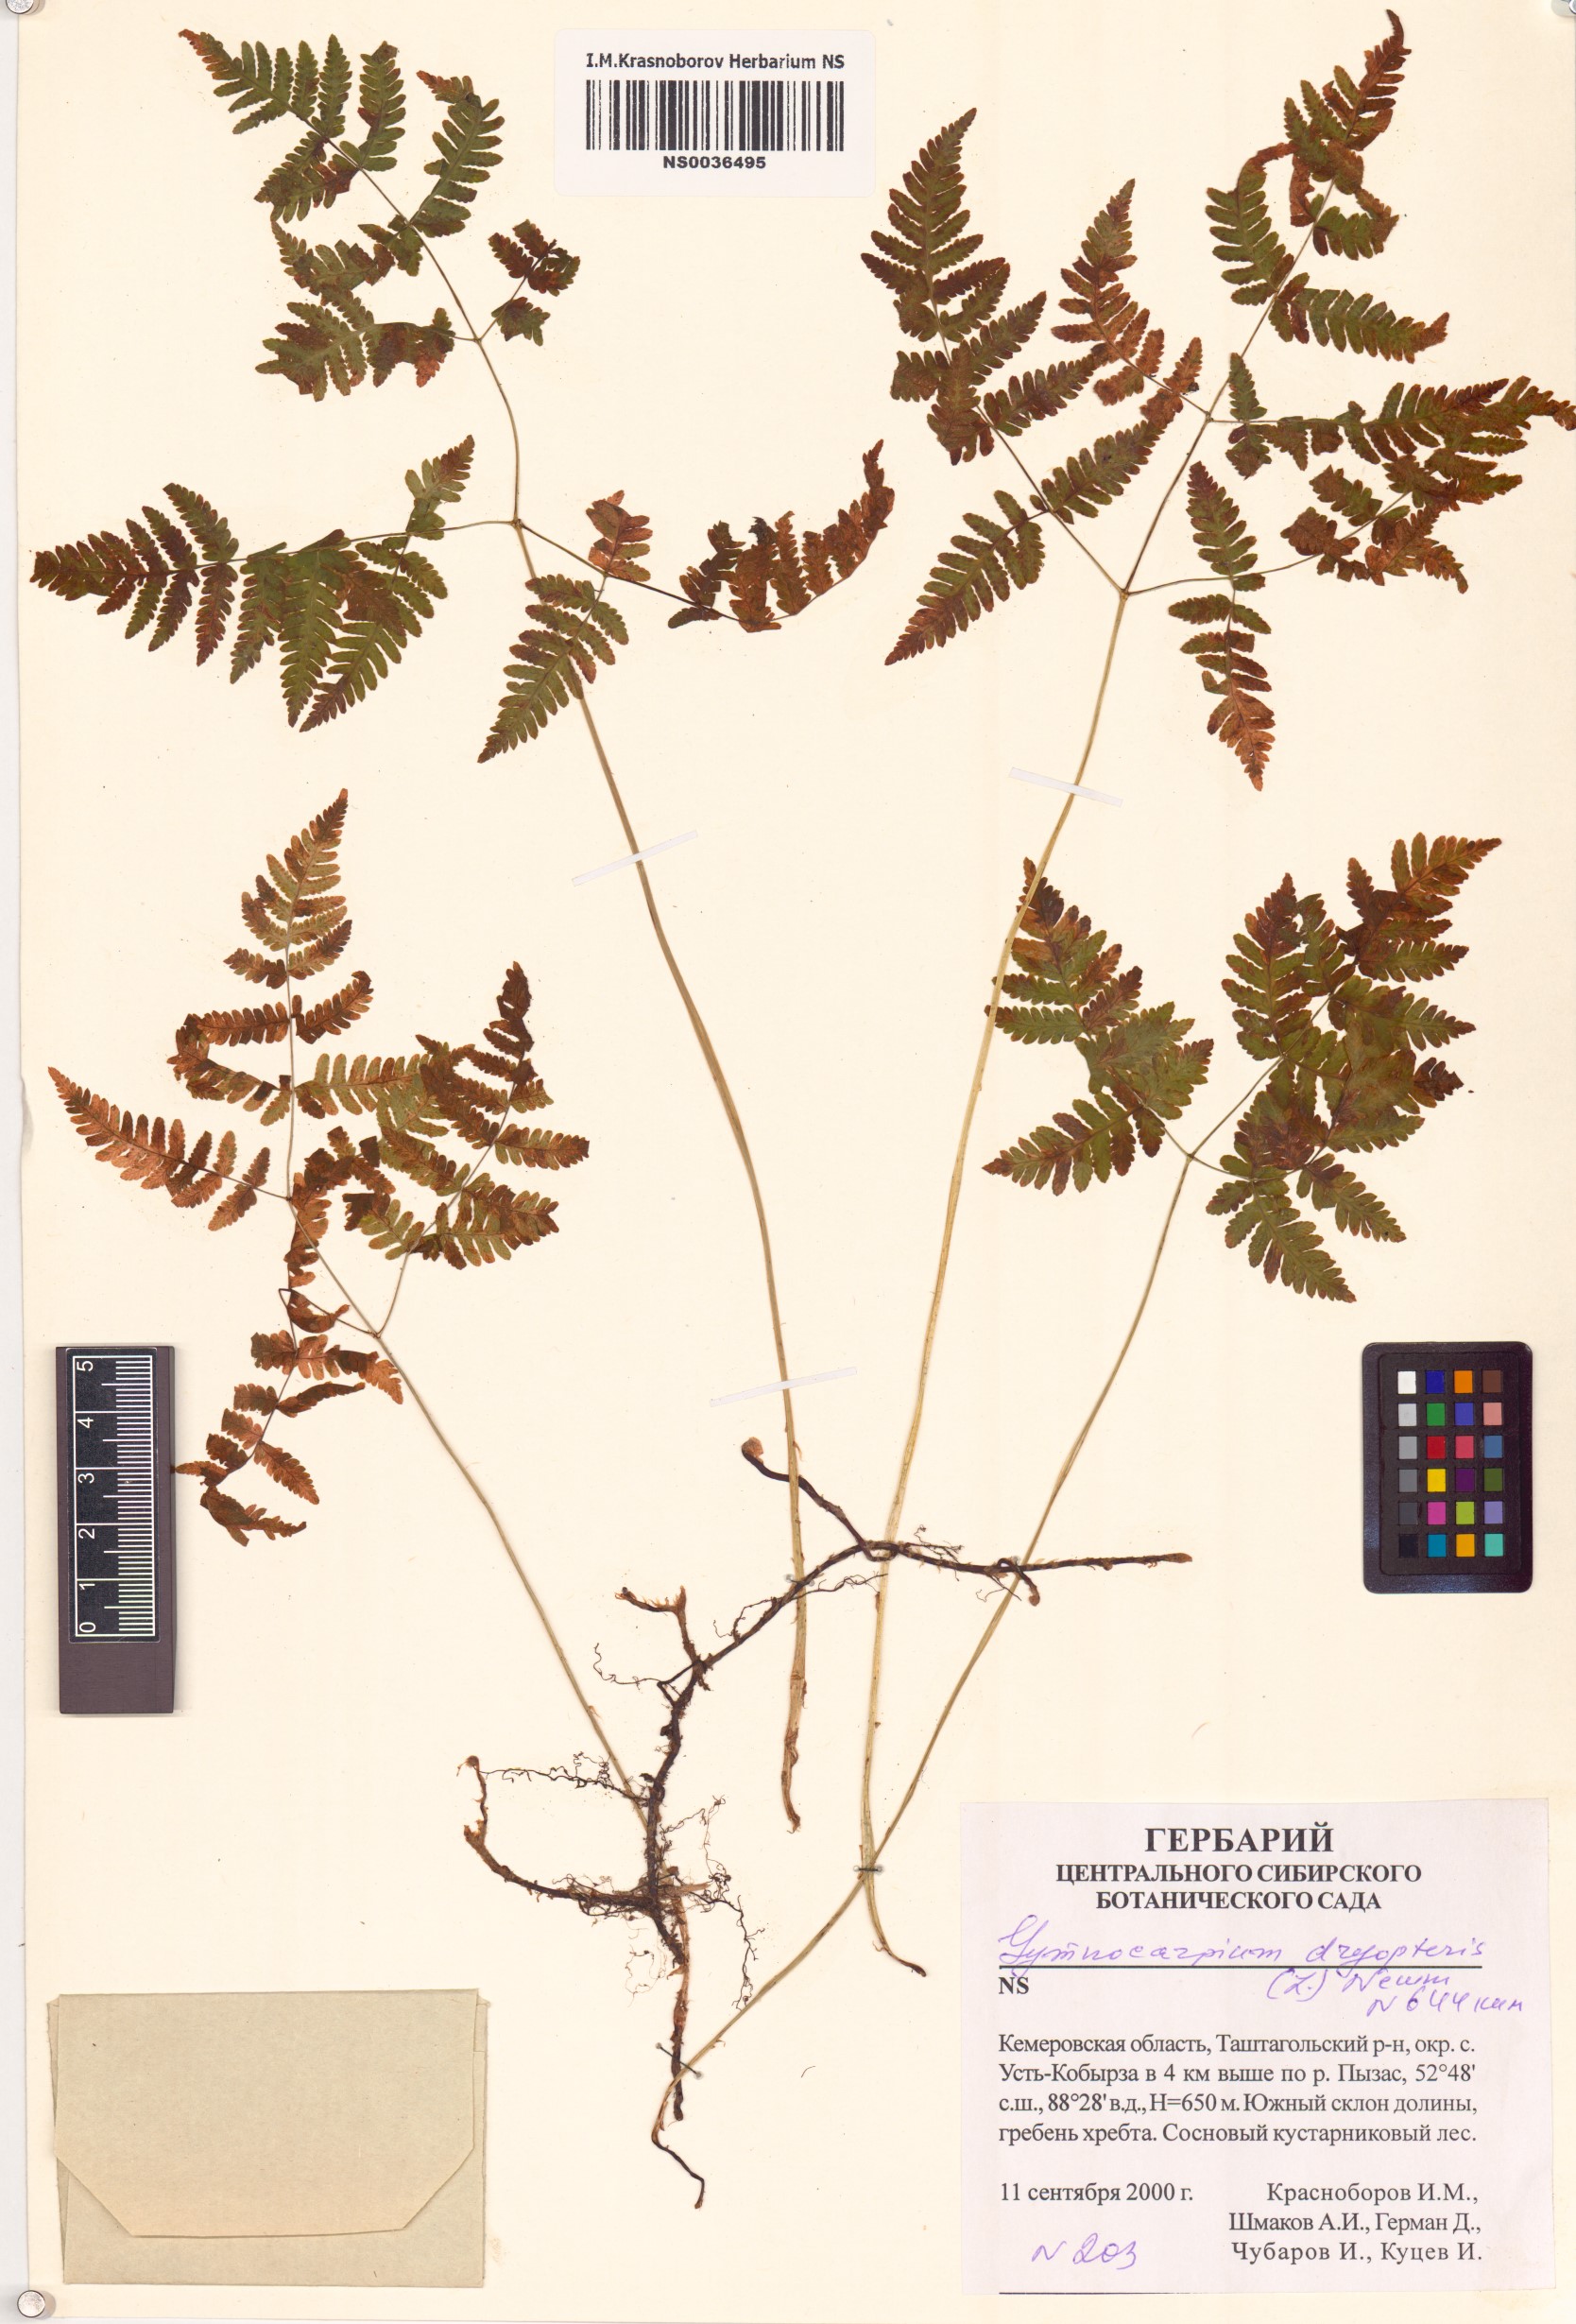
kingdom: Plantae
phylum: Tracheophyta
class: Polypodiopsida
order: Polypodiales
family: Cystopteridaceae
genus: Gymnocarpium
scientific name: Gymnocarpium dryopteris
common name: Oak fern
